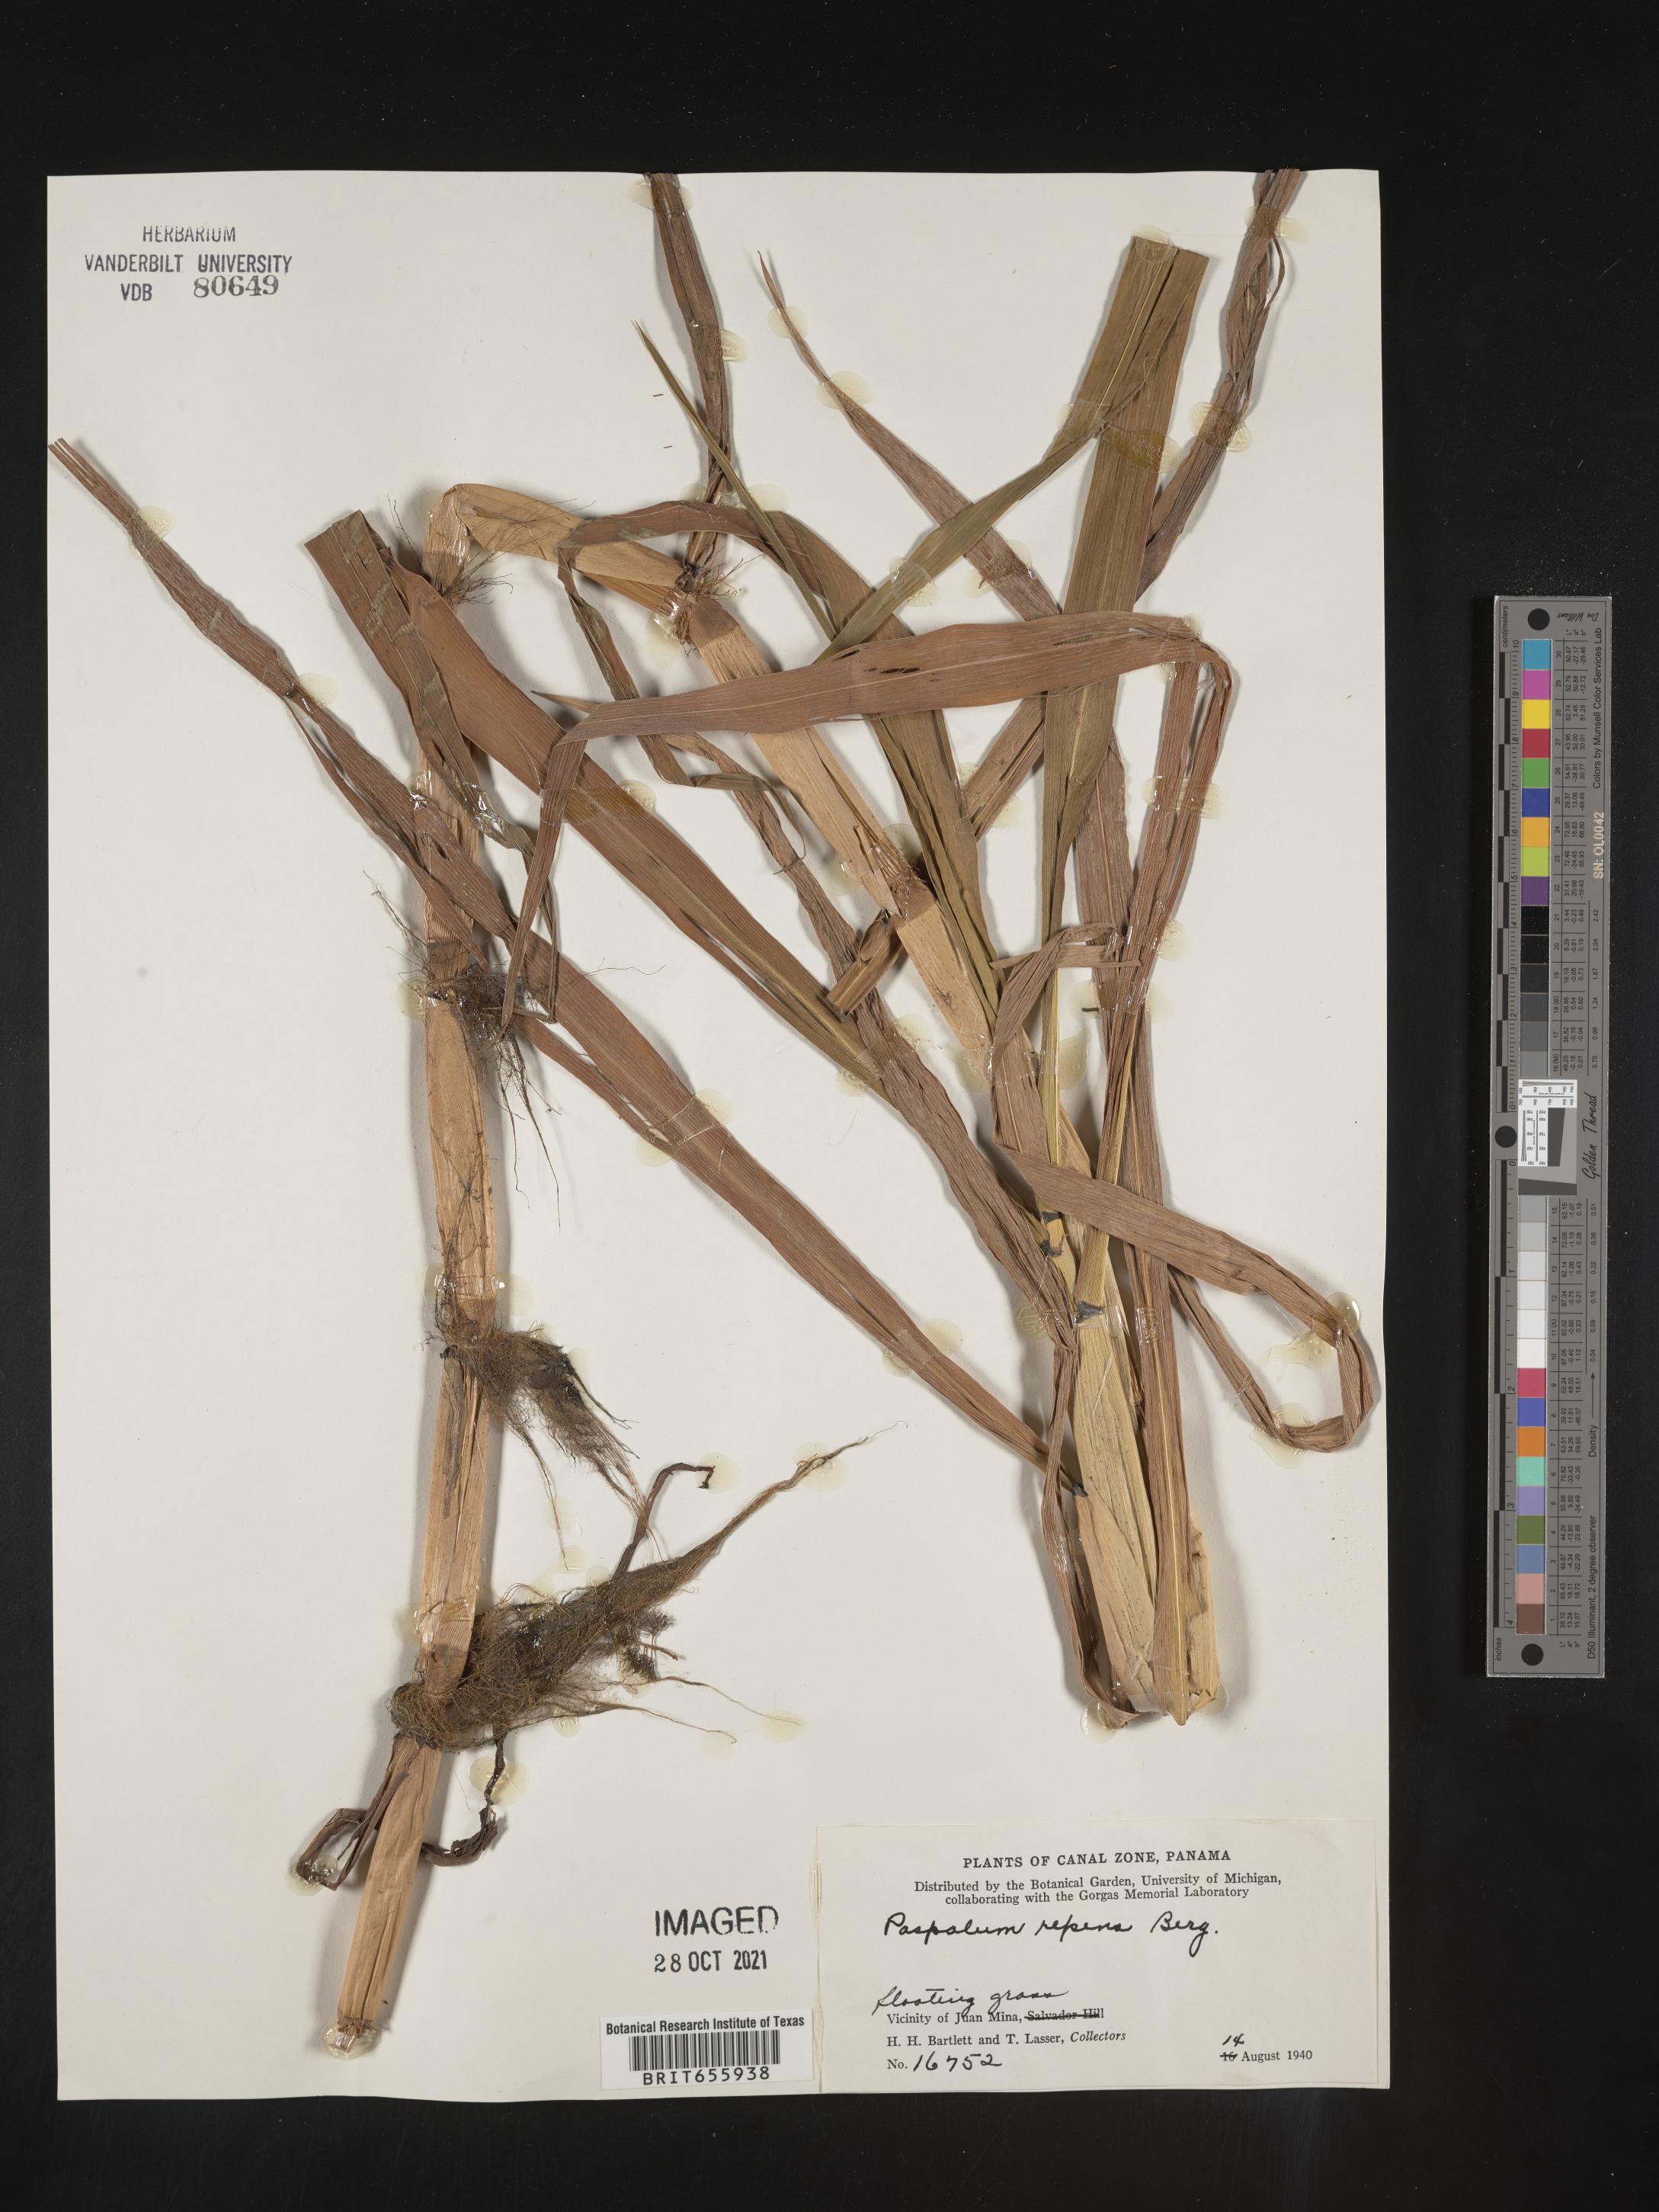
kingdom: Plantae
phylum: Tracheophyta
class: Liliopsida
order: Poales
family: Poaceae
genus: Paspalum
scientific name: Paspalum
